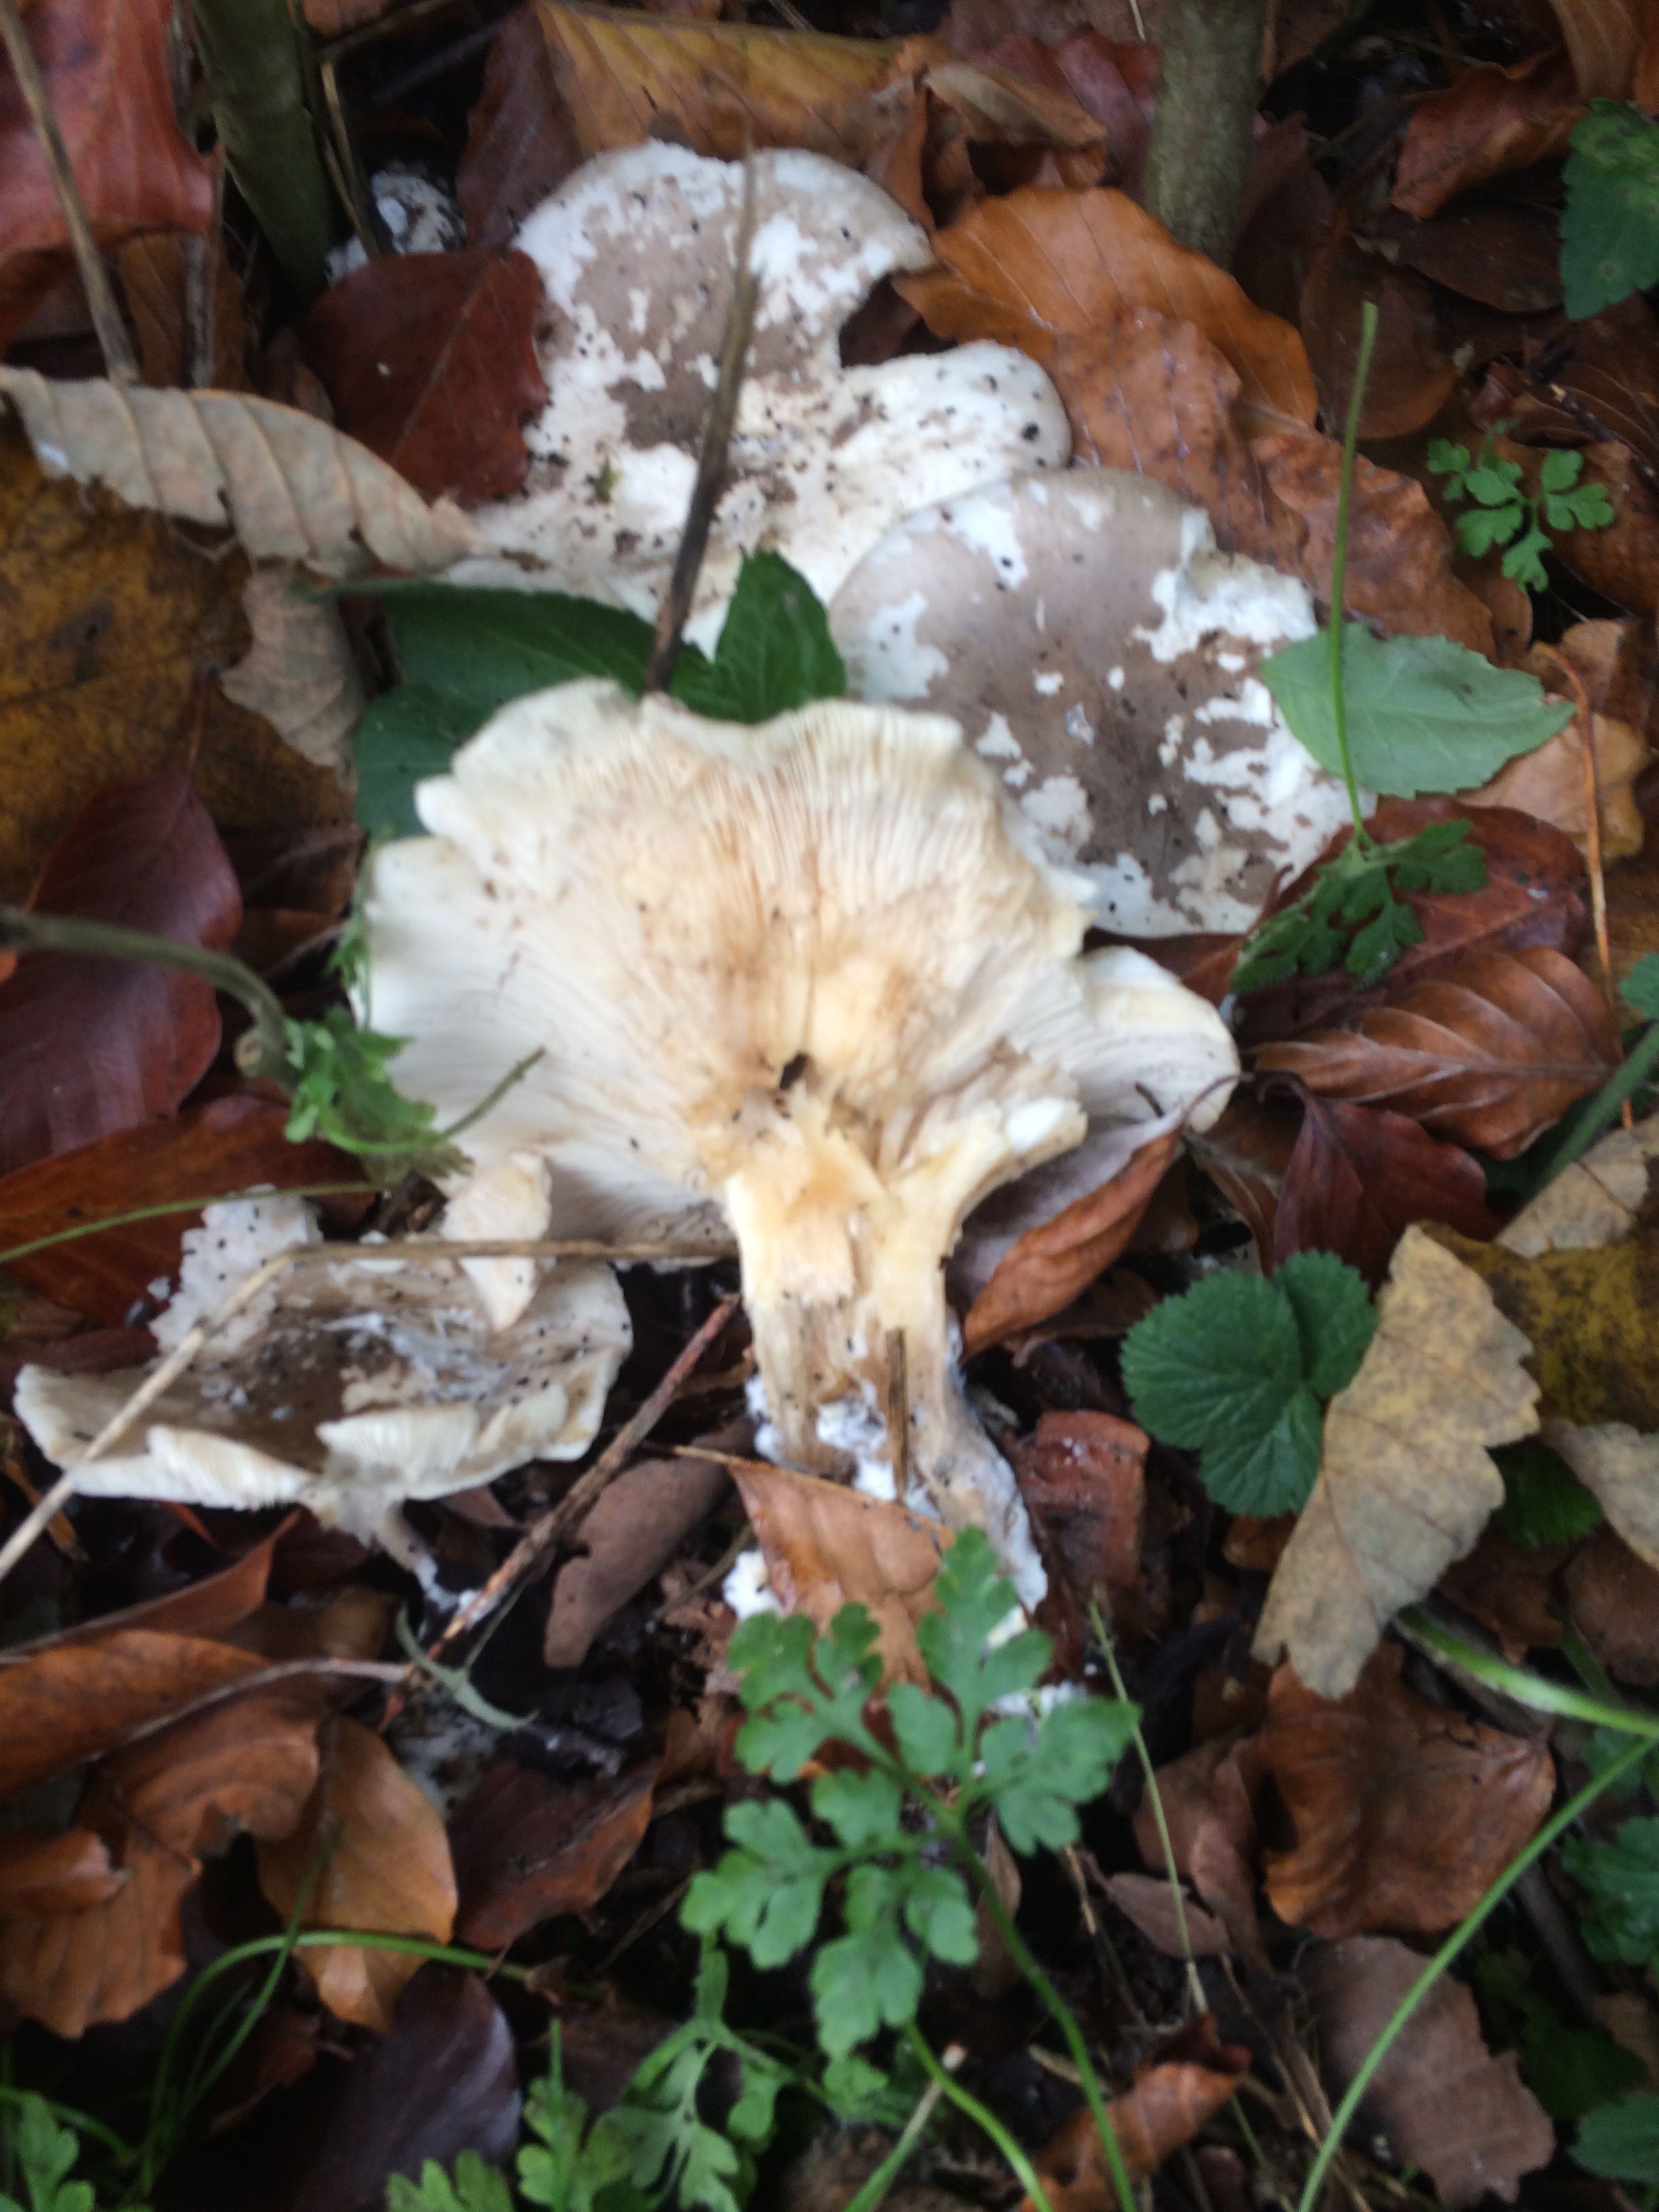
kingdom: Fungi
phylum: Basidiomycota
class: Agaricomycetes
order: Agaricales
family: Tricholomataceae
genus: Clitocybe
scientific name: Clitocybe nebularis
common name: tåge-tragthat
